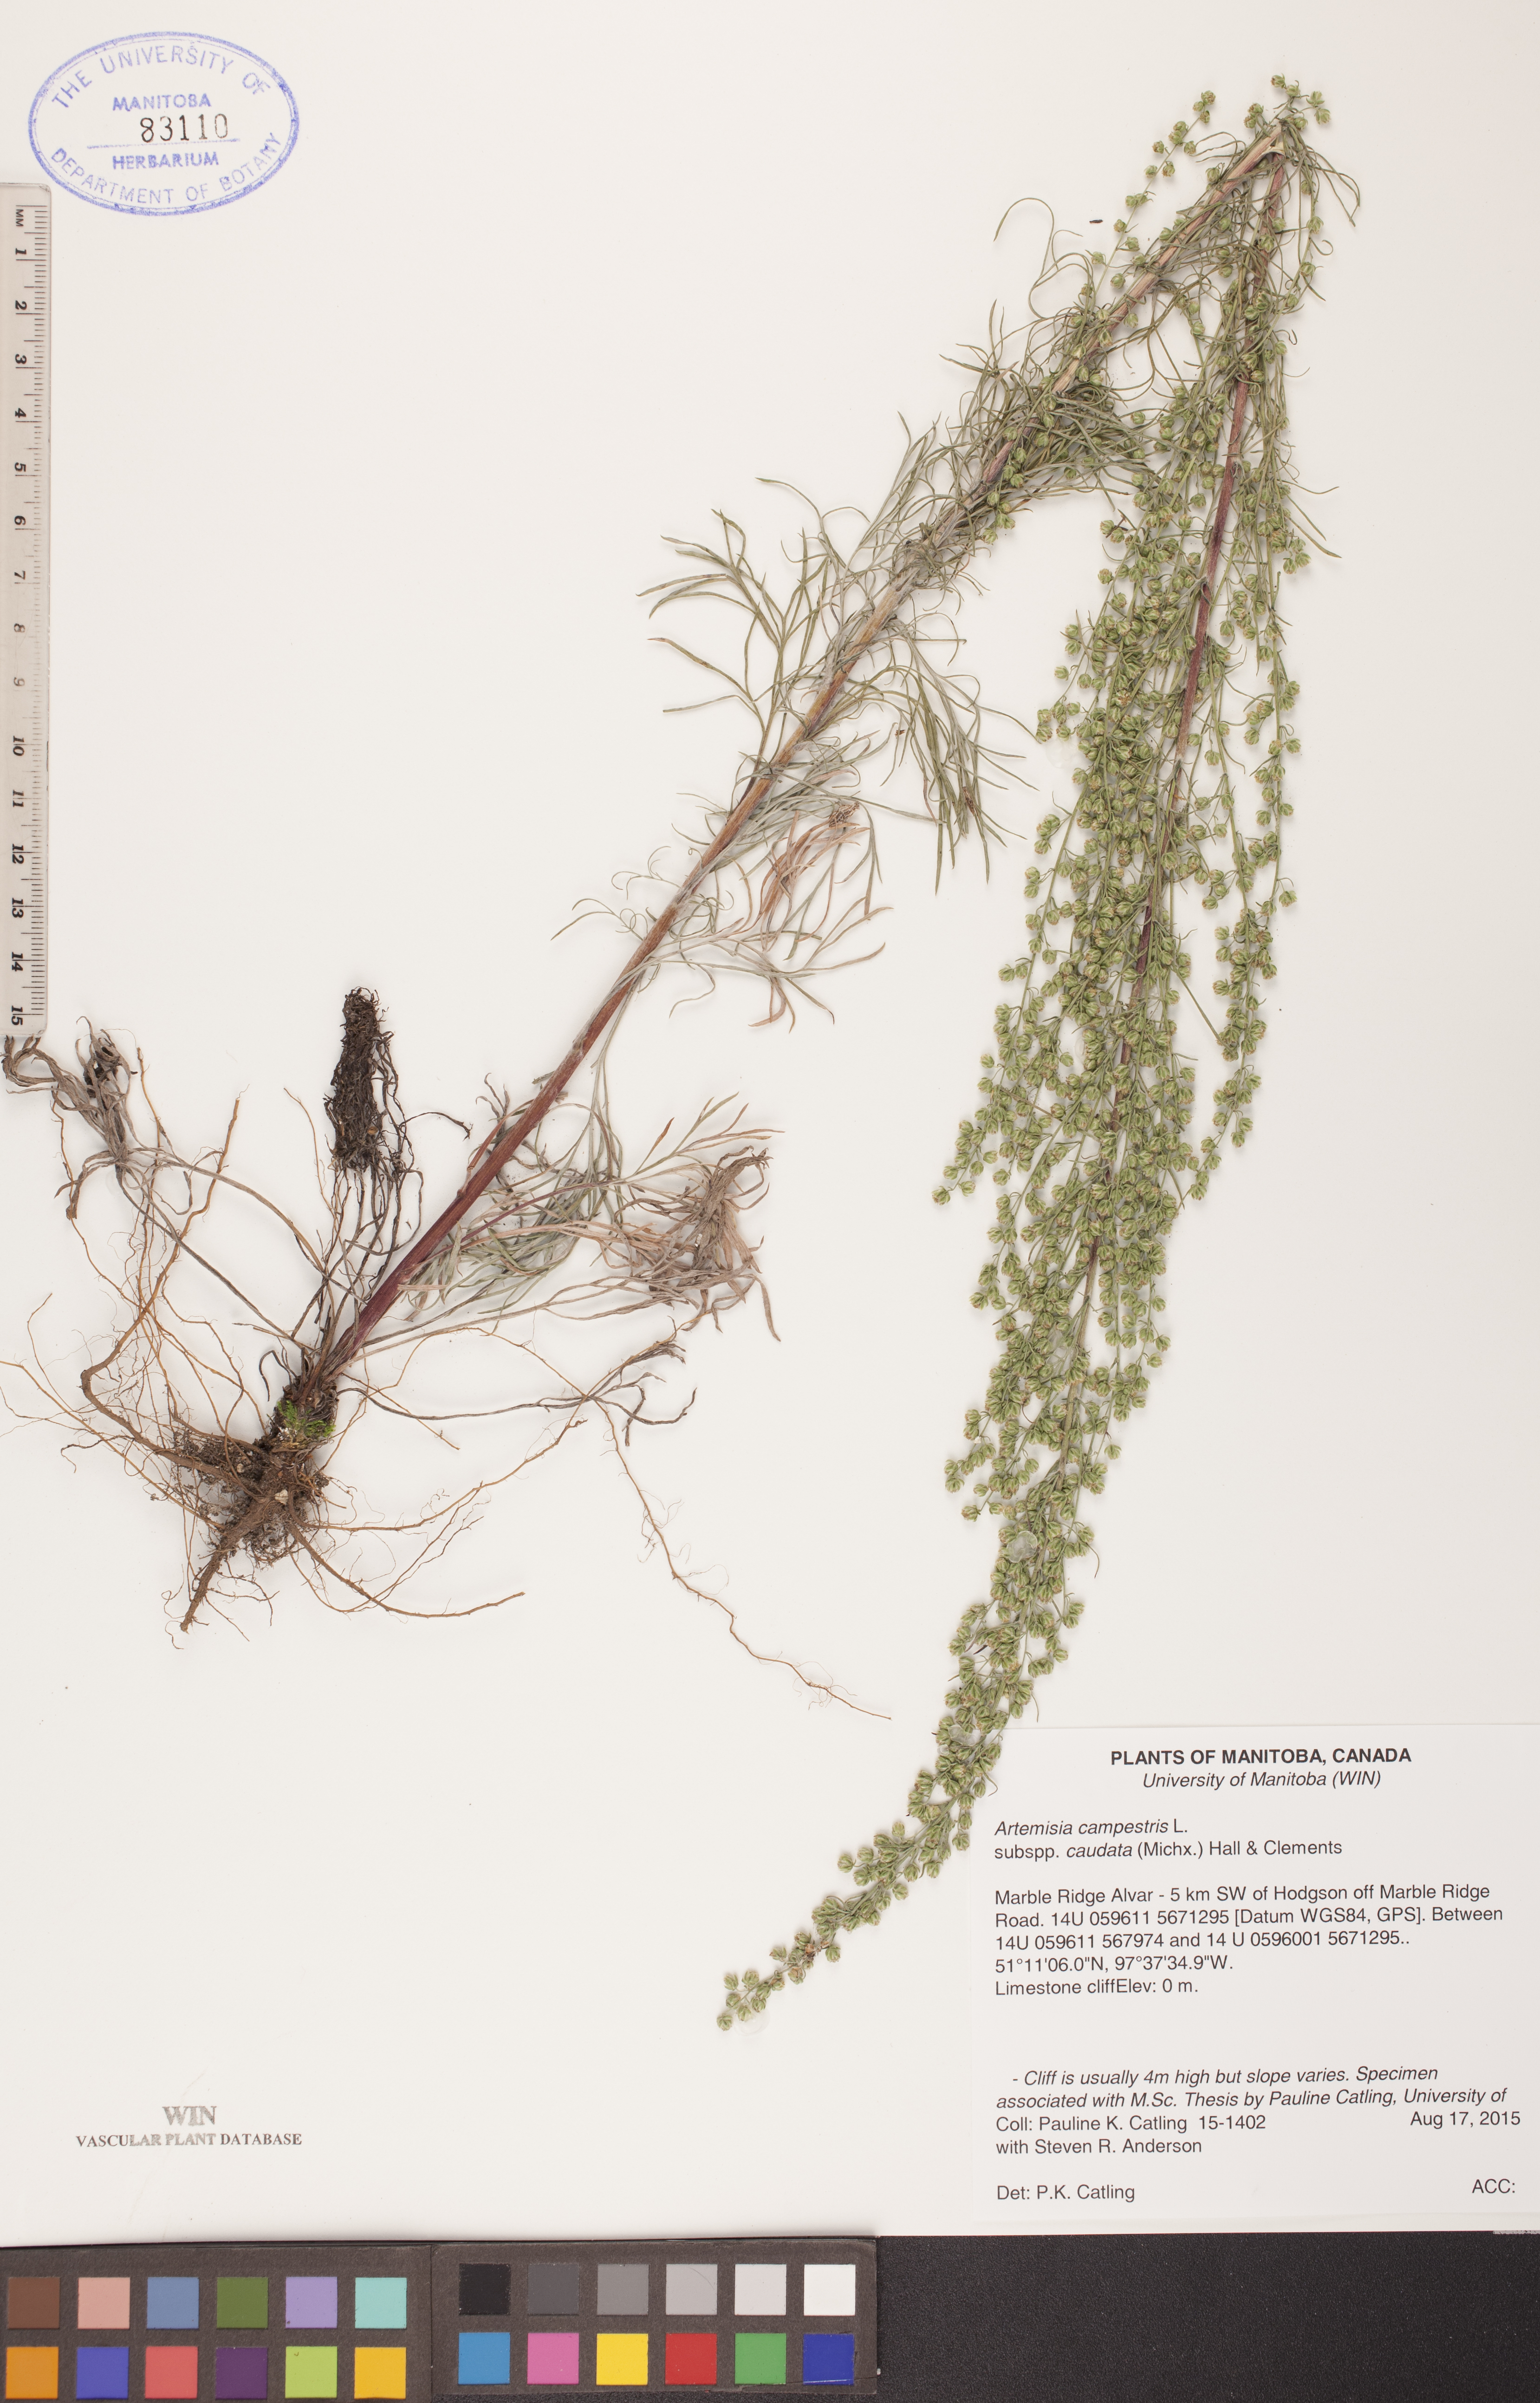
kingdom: Plantae
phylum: Tracheophyta
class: Magnoliopsida
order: Asterales
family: Asteraceae
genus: Artemisia
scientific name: Artemisia campestris
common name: Field wormwood
